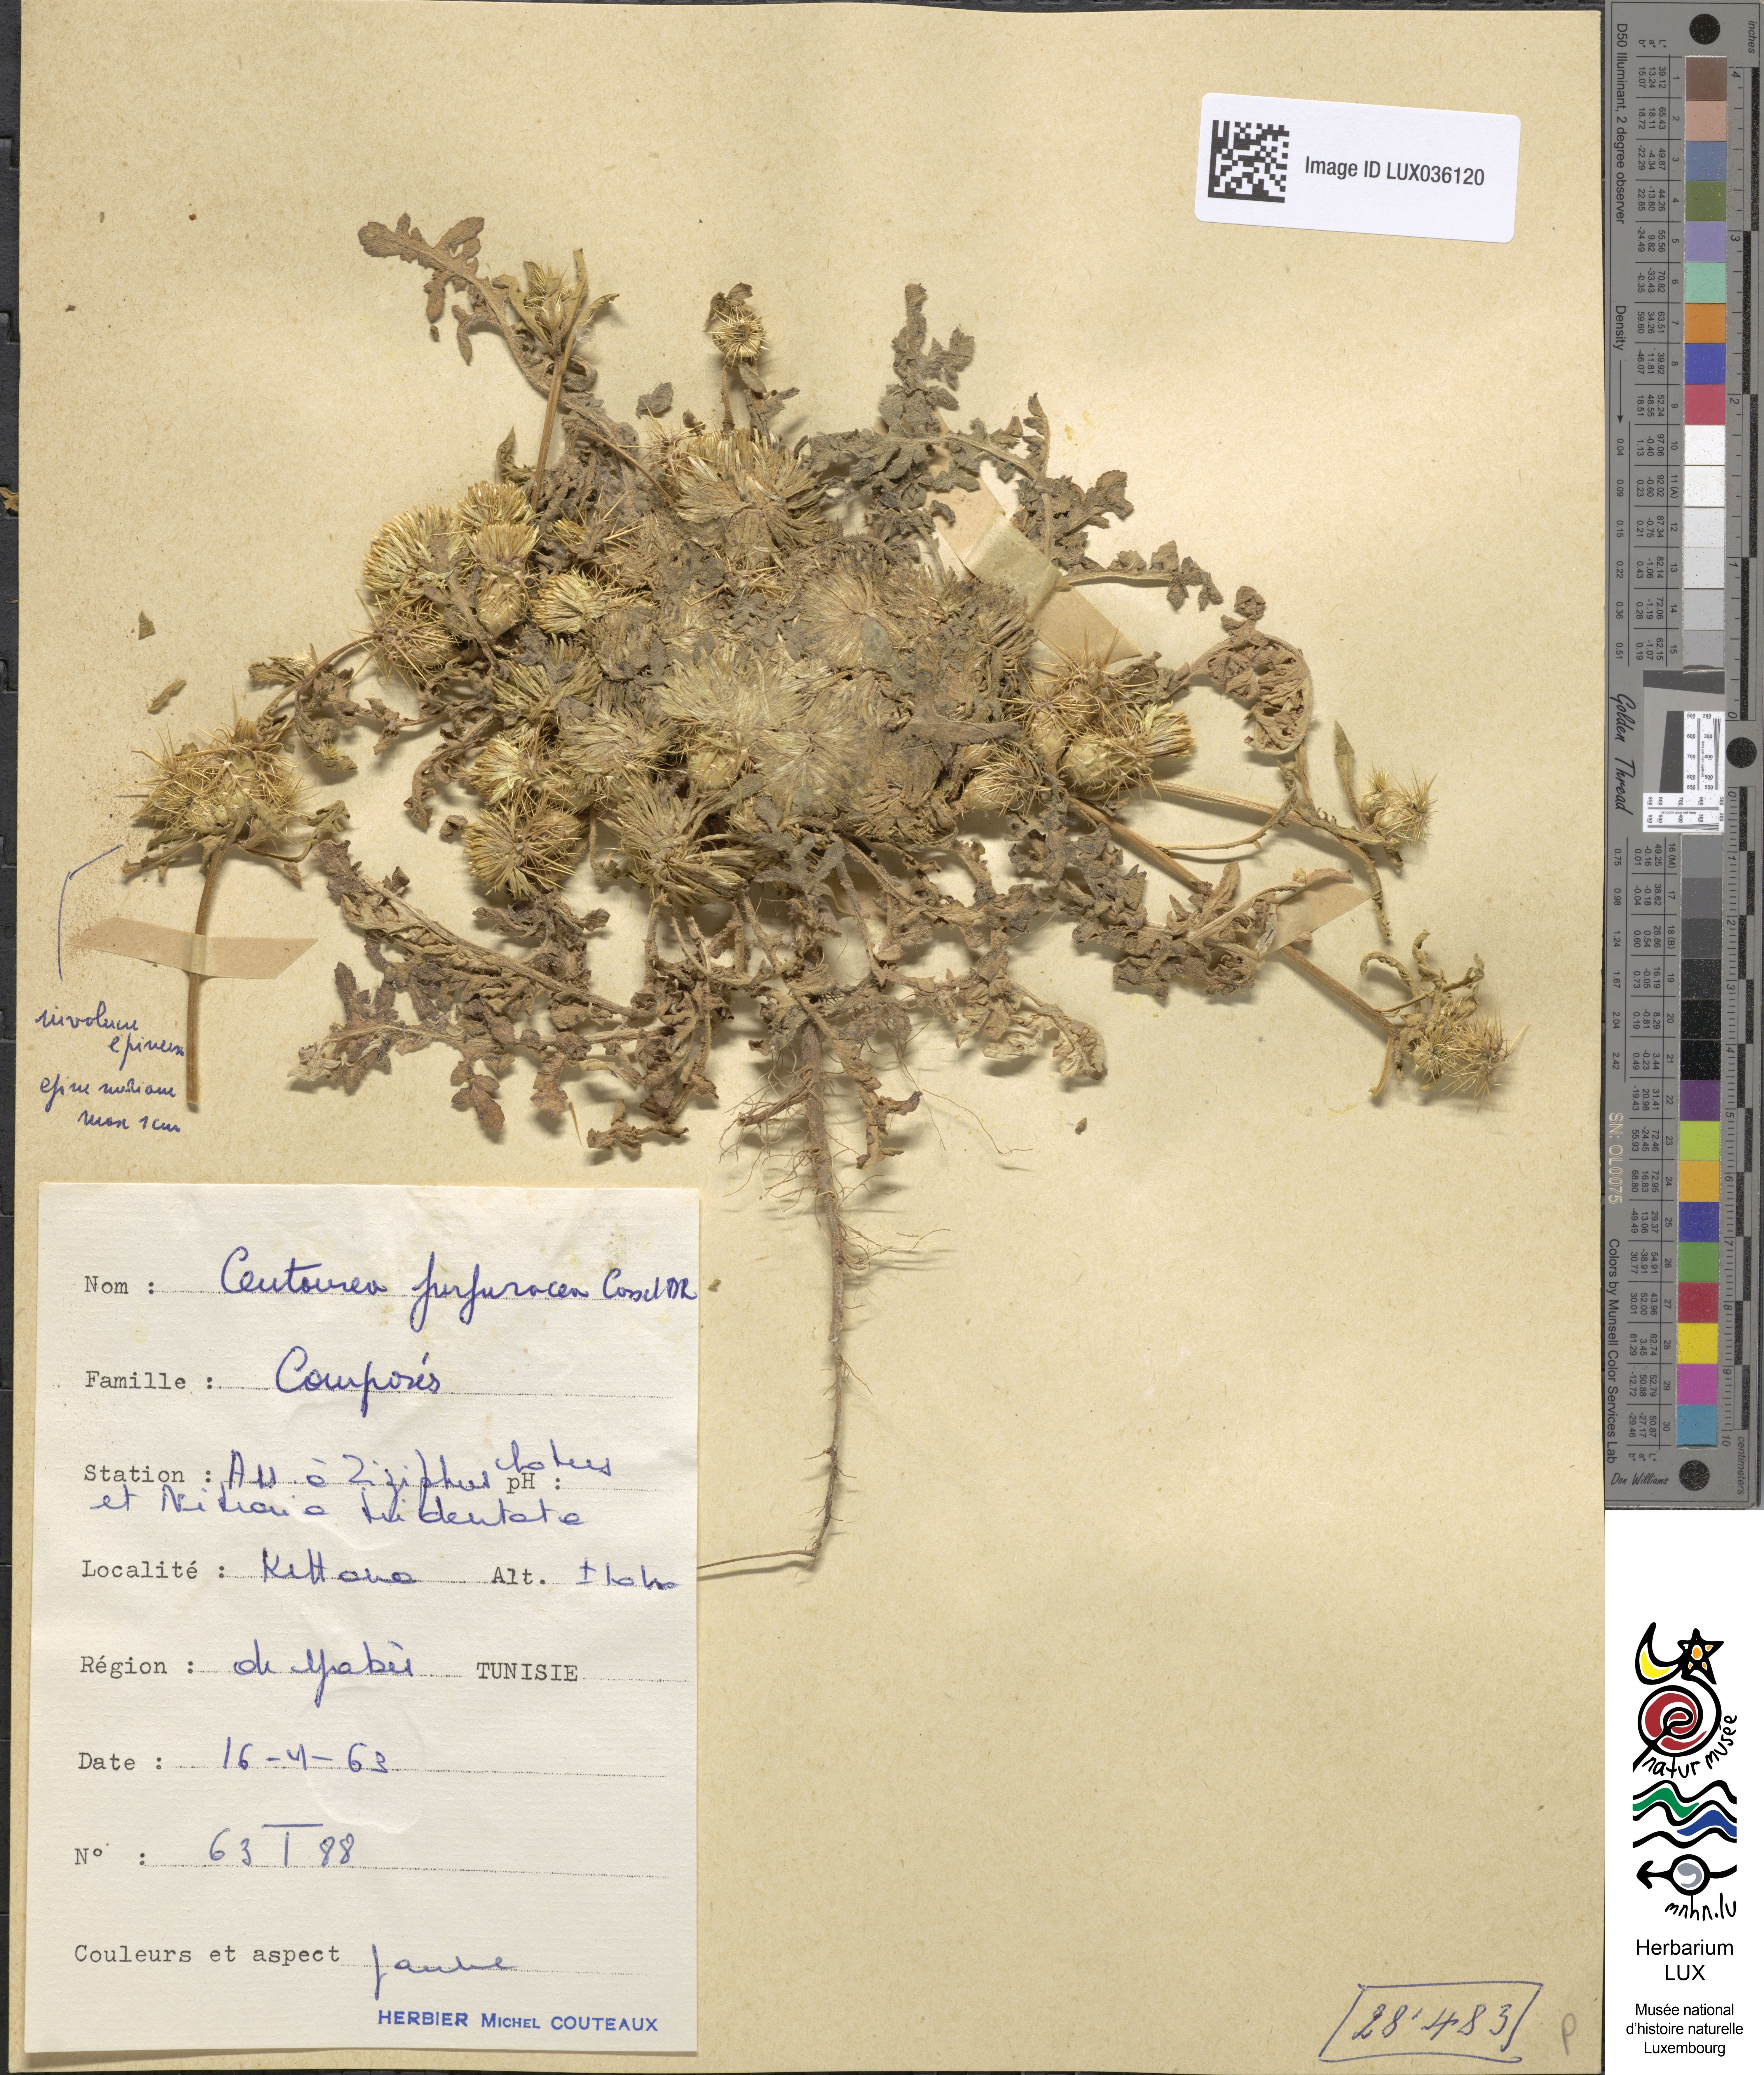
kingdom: Plantae
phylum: Tracheophyta
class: Magnoliopsida
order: Asterales
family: Asteraceae
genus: Centaurea
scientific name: Centaurea purpurea
